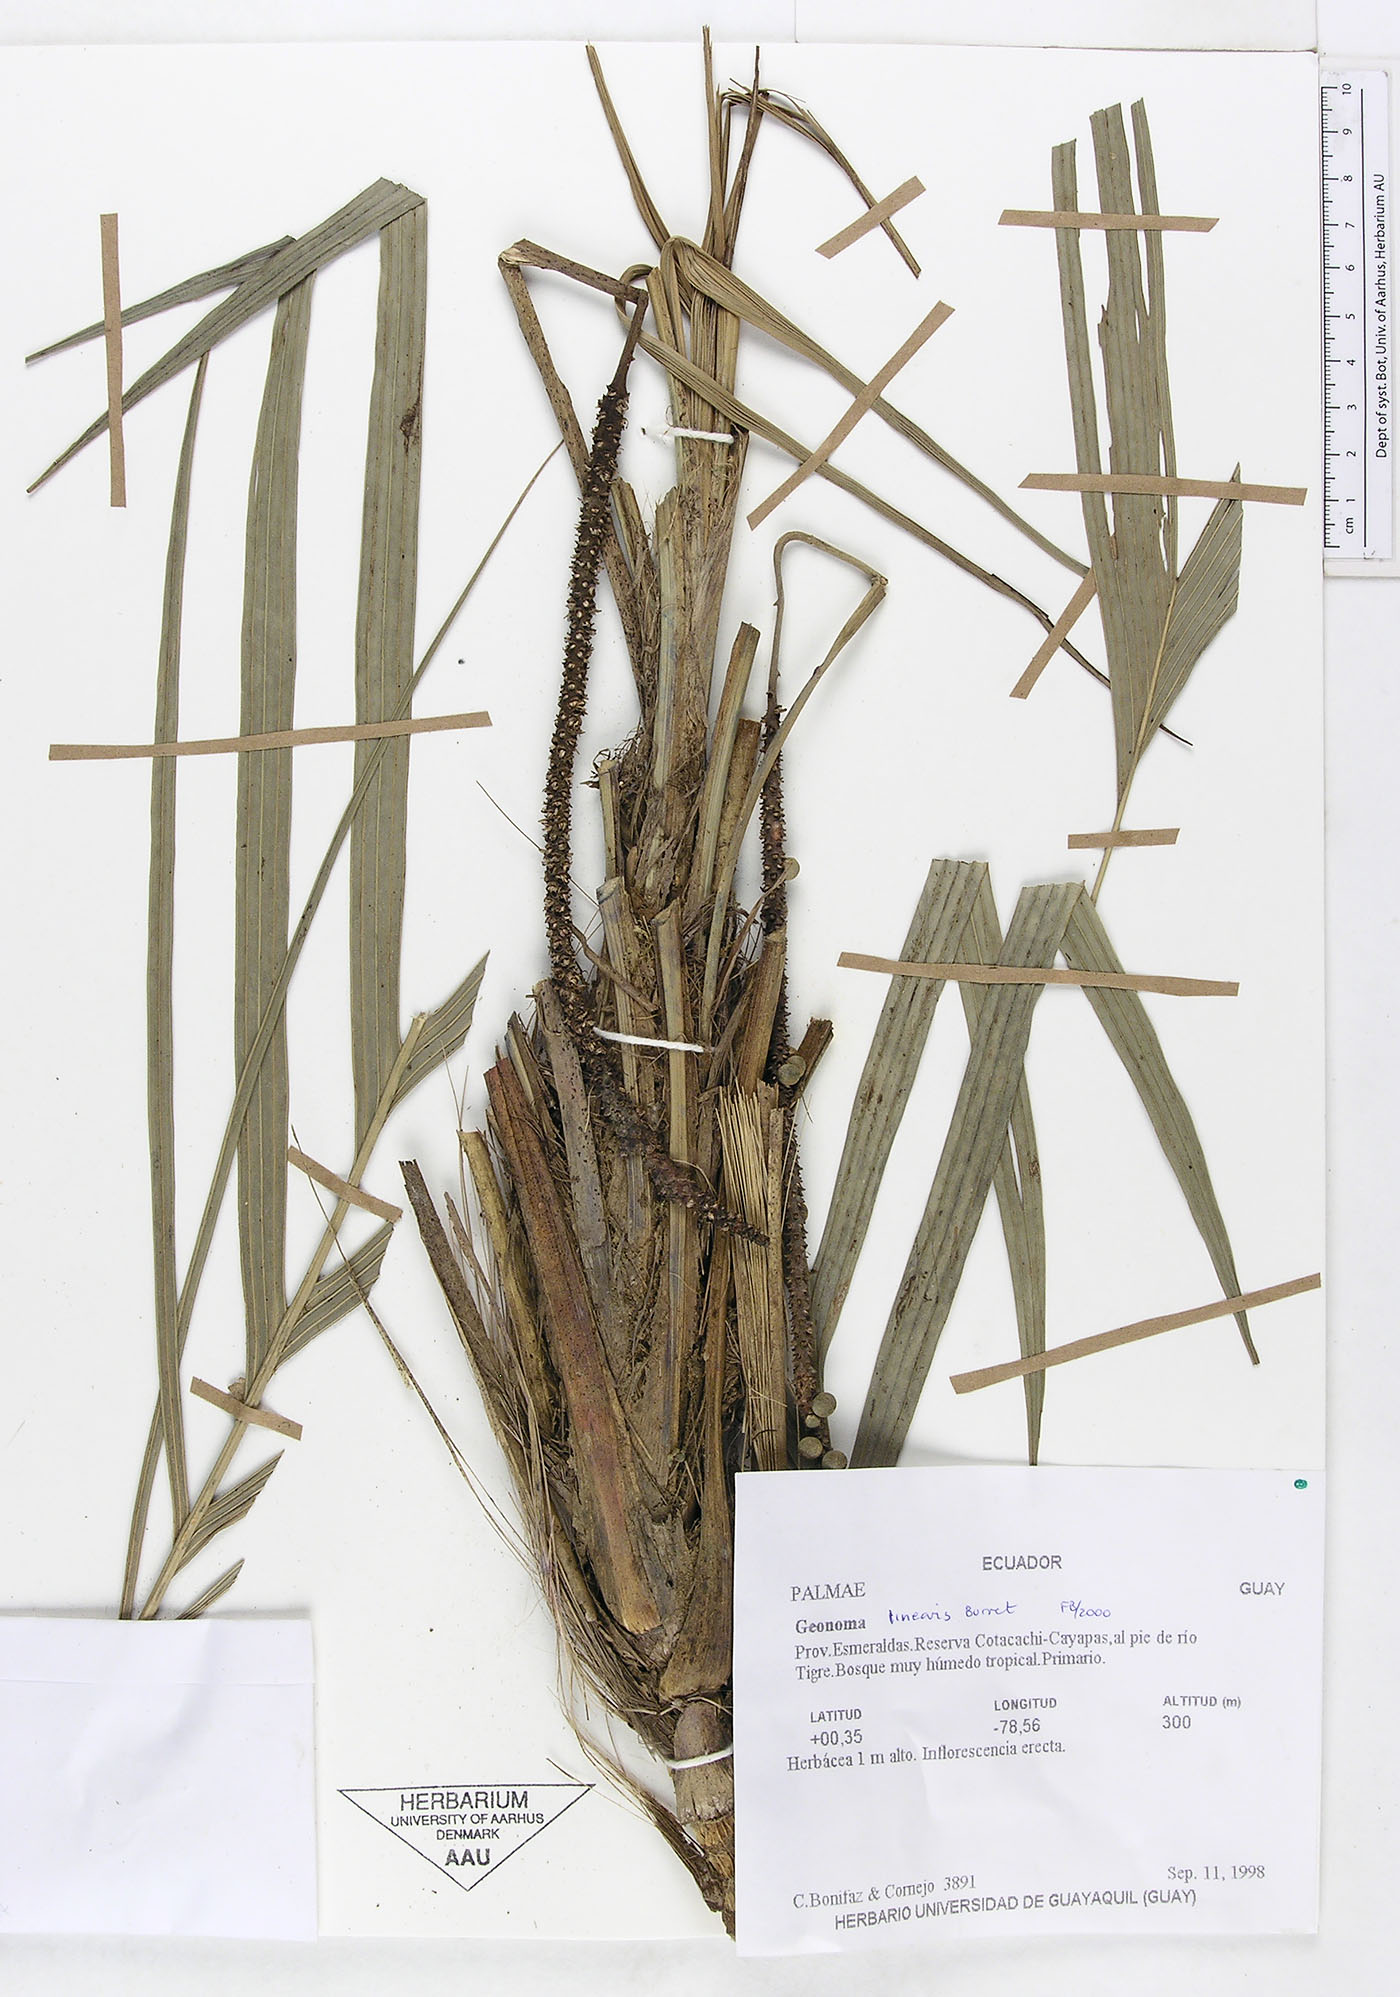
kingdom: Plantae
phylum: Tracheophyta
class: Liliopsida
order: Arecales
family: Arecaceae
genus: Geonoma
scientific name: Geonoma cuneata
